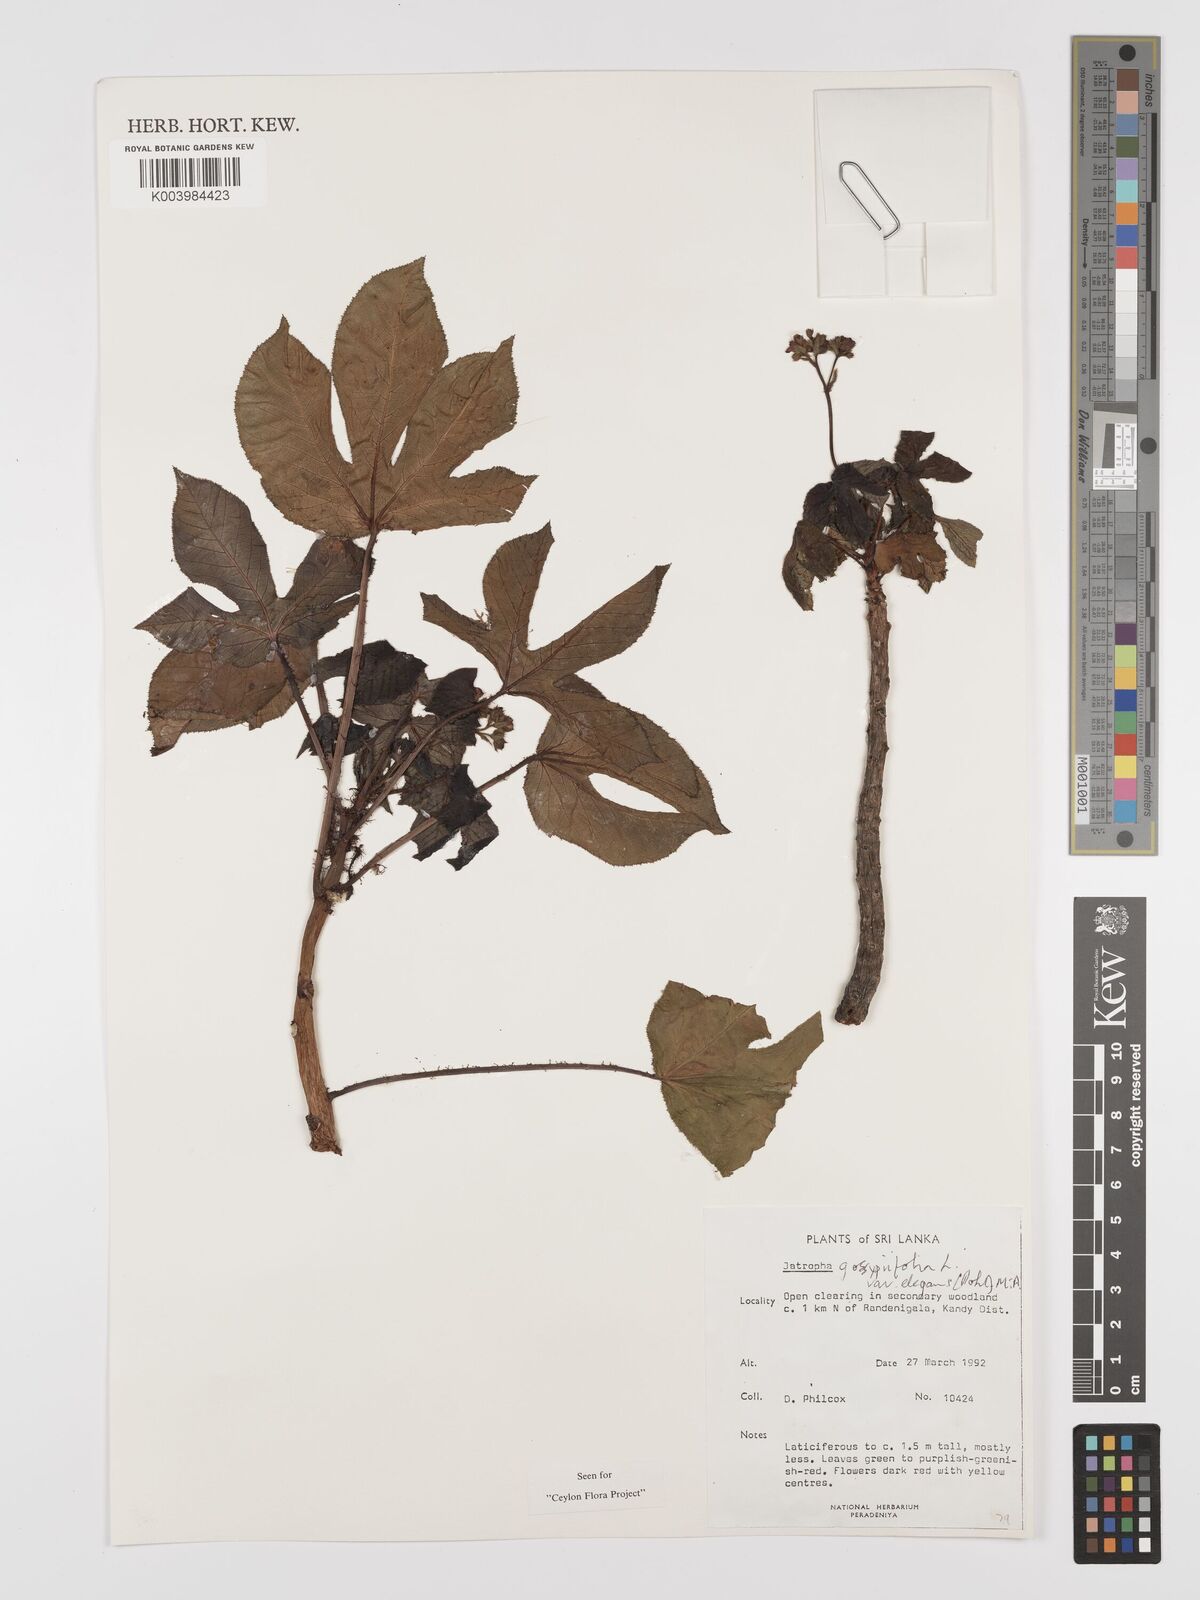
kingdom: Plantae
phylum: Tracheophyta
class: Magnoliopsida
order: Malpighiales
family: Euphorbiaceae
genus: Jatropha
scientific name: Jatropha gossypiifolia
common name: Bellyache bush
